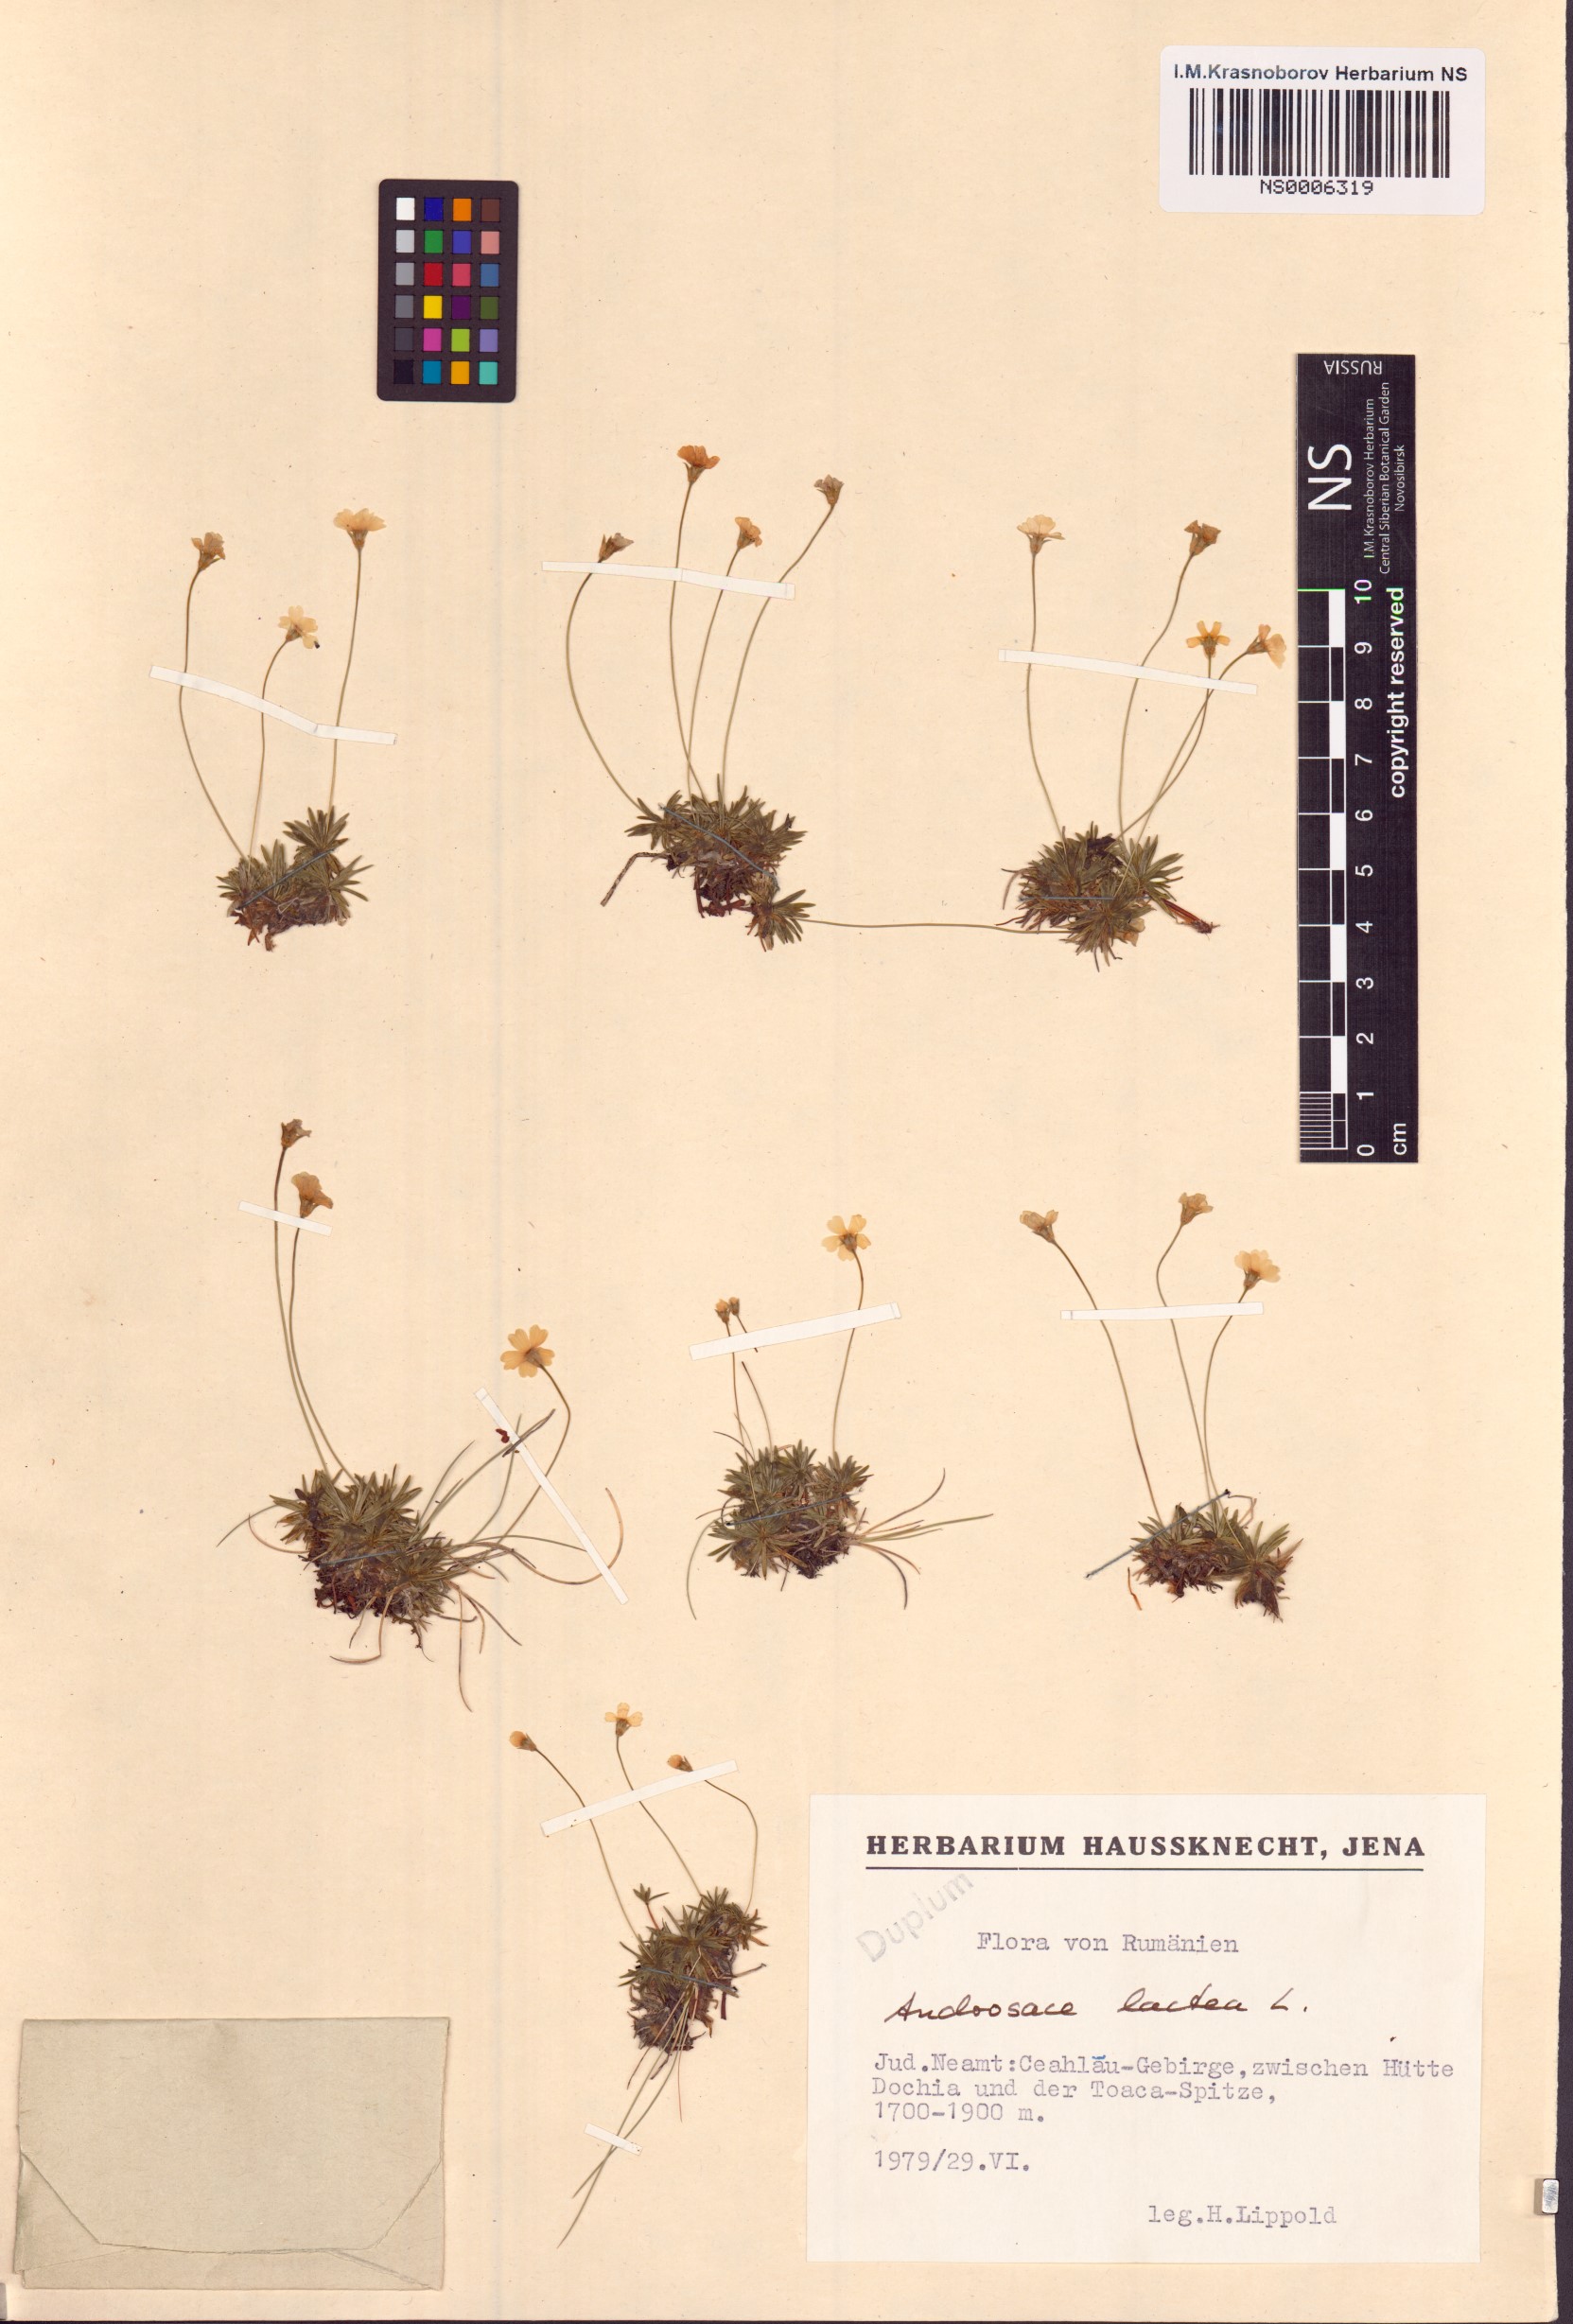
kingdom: Plantae
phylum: Tracheophyta
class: Magnoliopsida
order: Ericales
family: Primulaceae
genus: Androsace
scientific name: Androsace lactea
